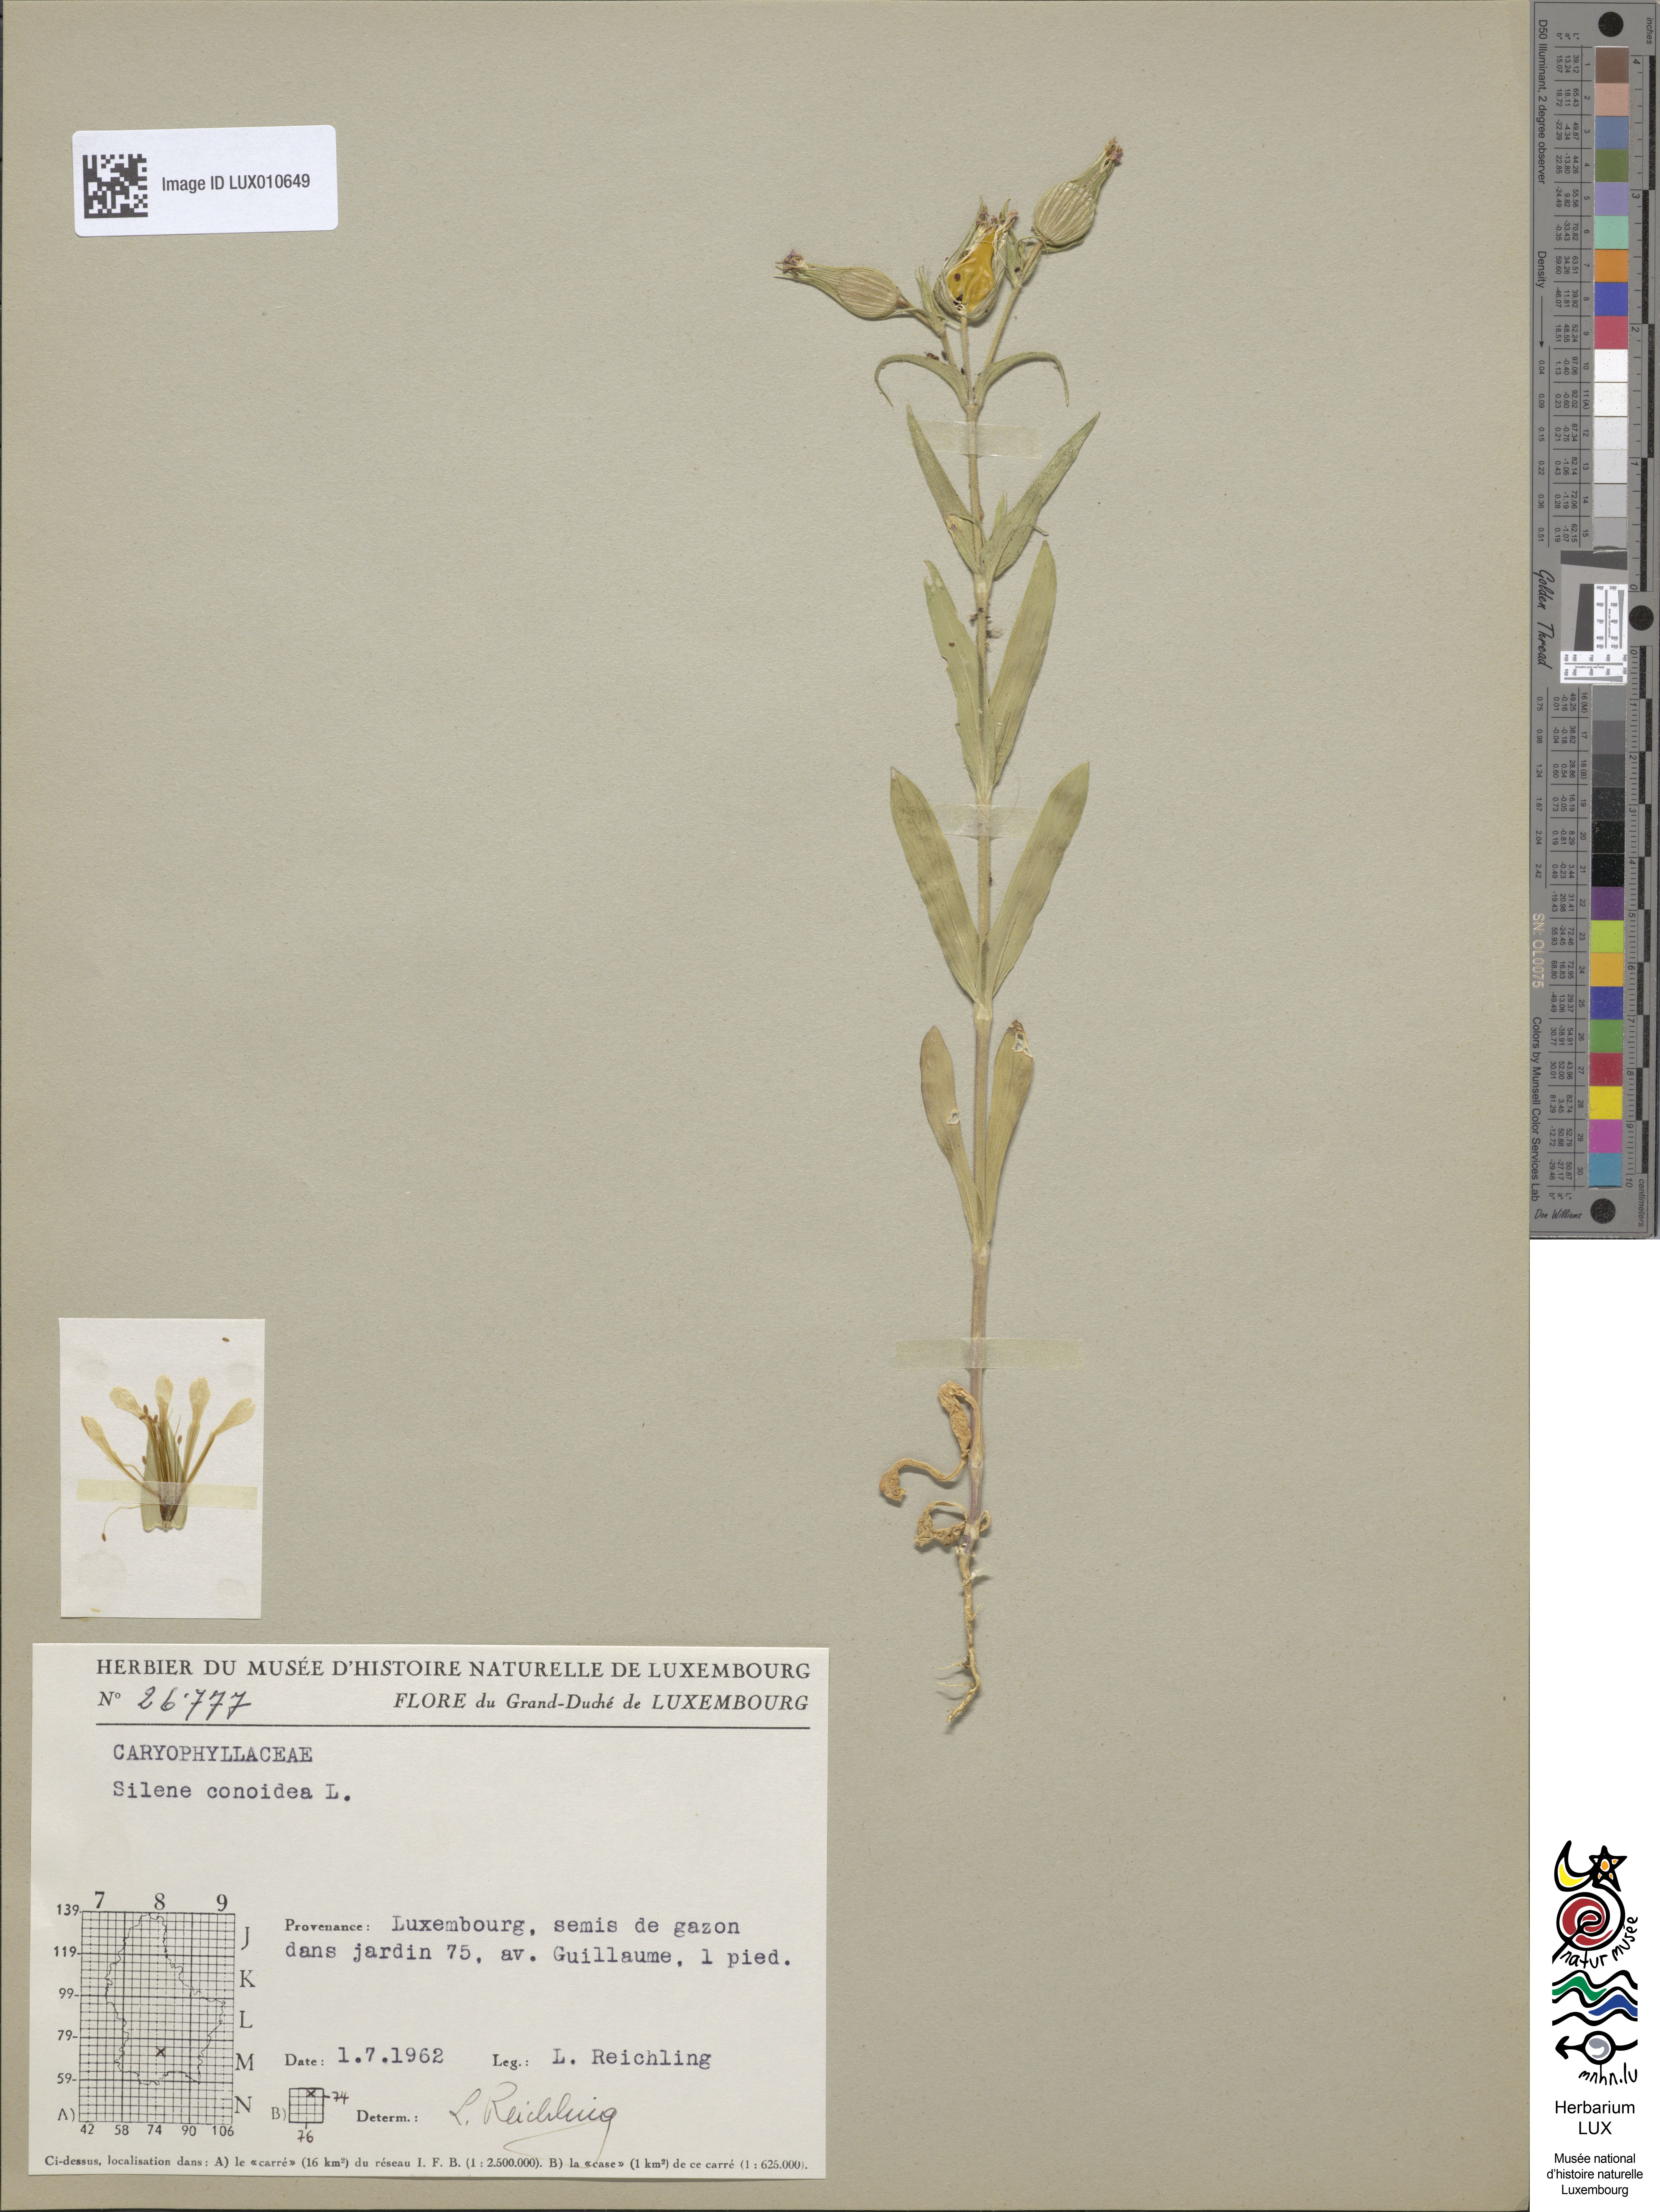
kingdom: Plantae
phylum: Tracheophyta
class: Magnoliopsida
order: Caryophyllales
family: Caryophyllaceae
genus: Silene
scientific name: Silene conoidea
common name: Weed silene
